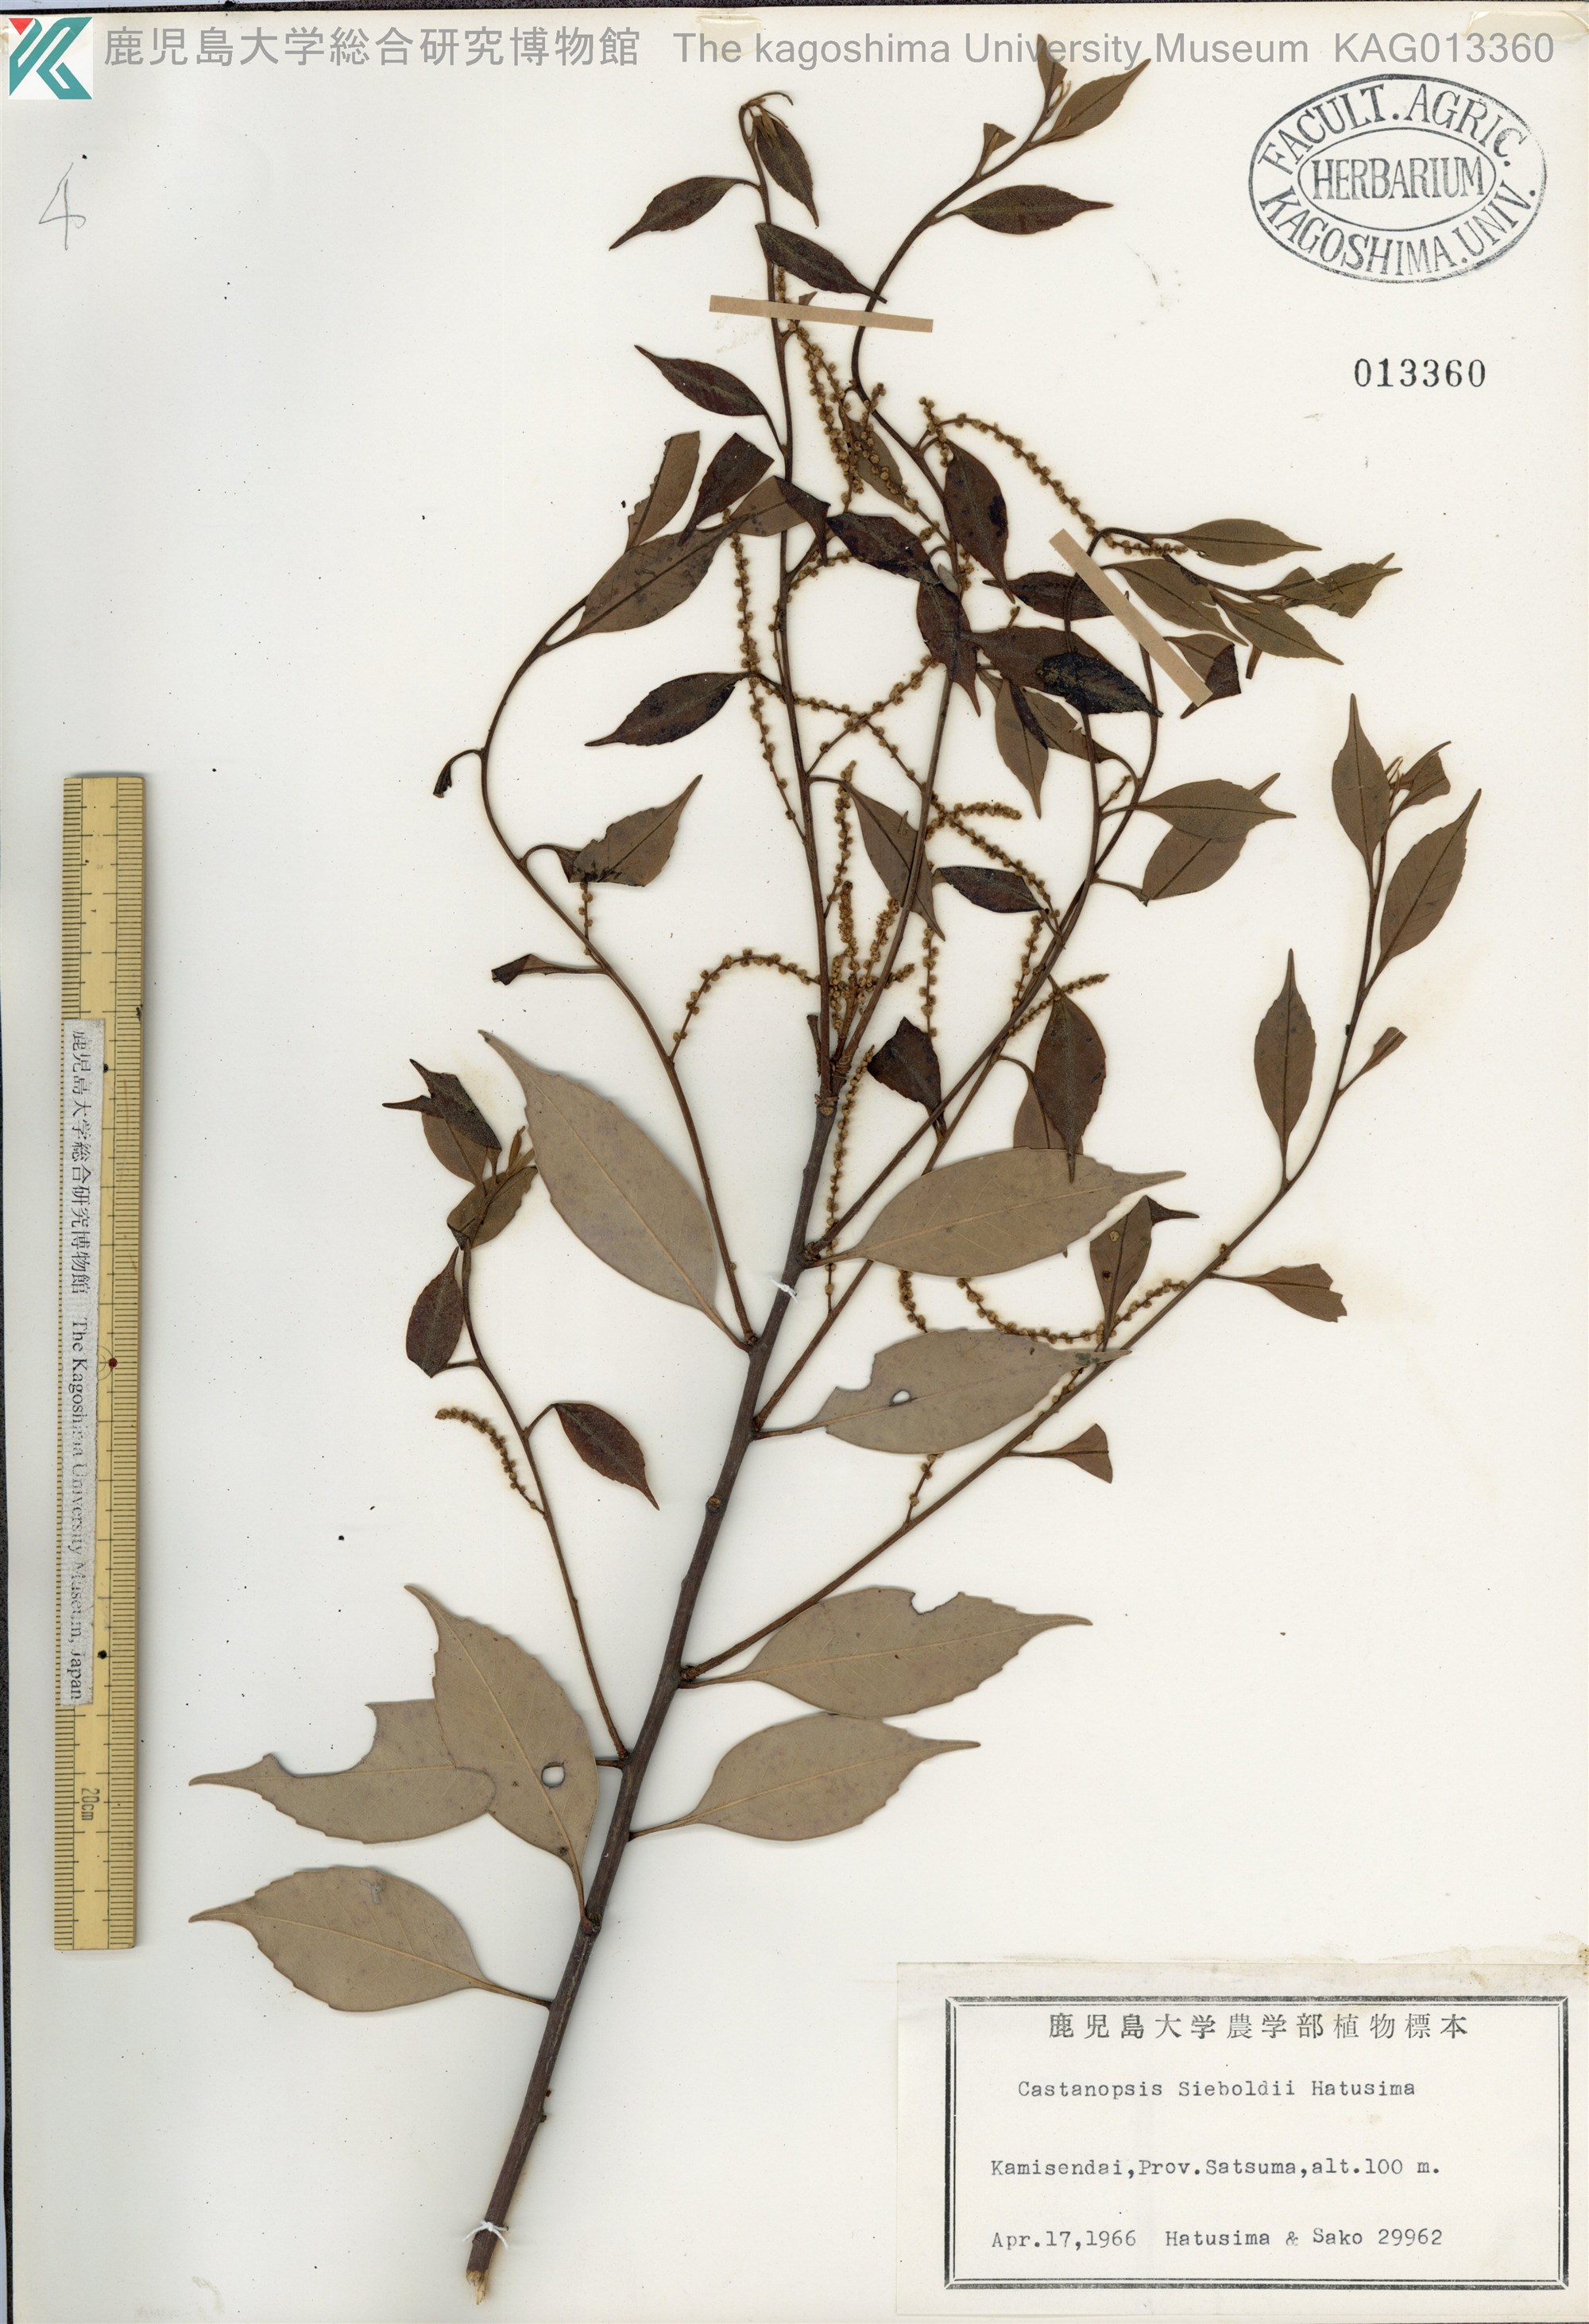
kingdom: Plantae
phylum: Tracheophyta
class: Magnoliopsida
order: Fagales
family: Fagaceae
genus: Castanopsis
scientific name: Castanopsis sieboldii
